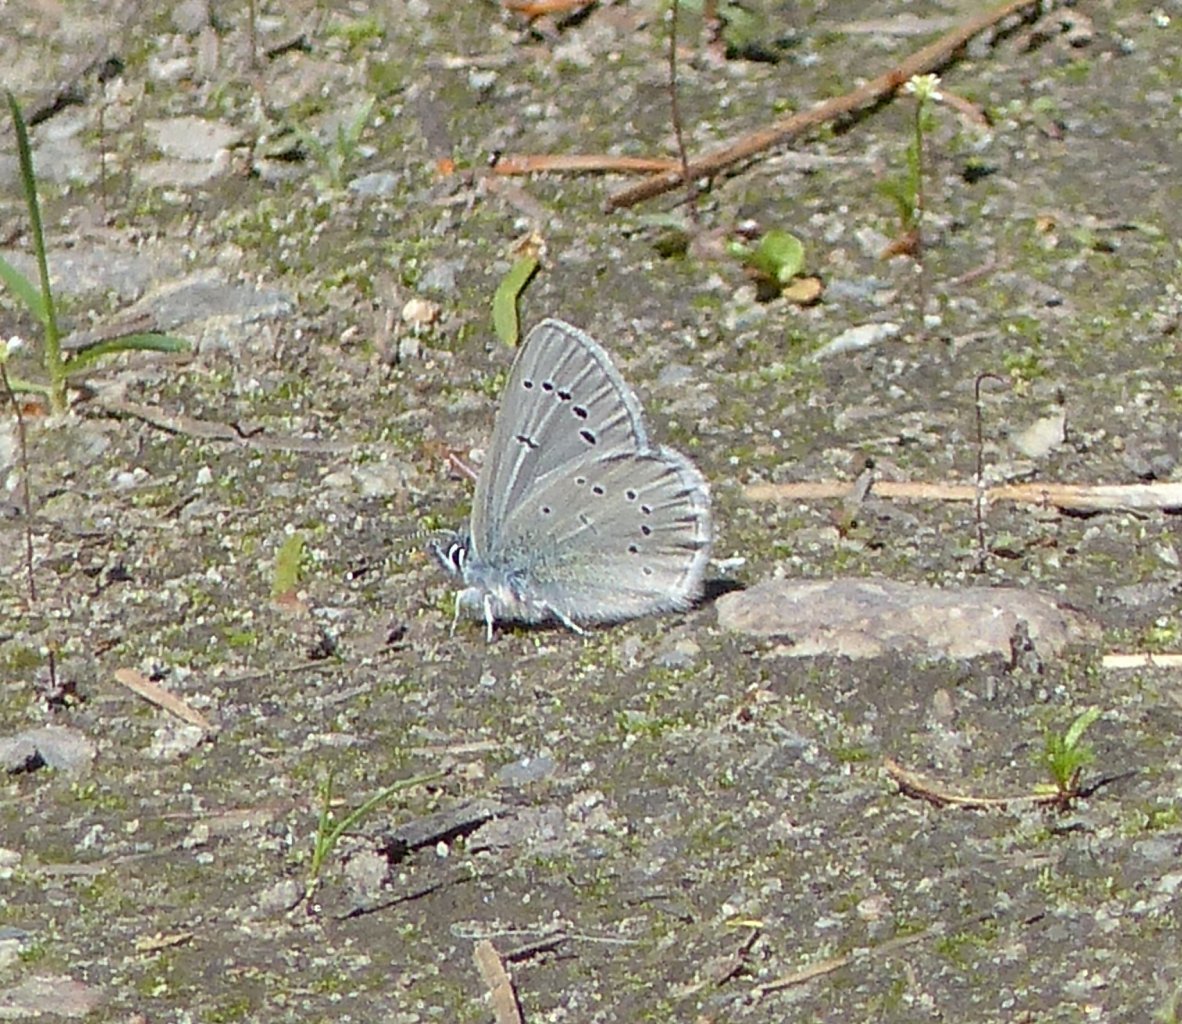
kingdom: Animalia
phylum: Arthropoda
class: Insecta
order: Lepidoptera
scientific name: Lepidoptera
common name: Butterflies
